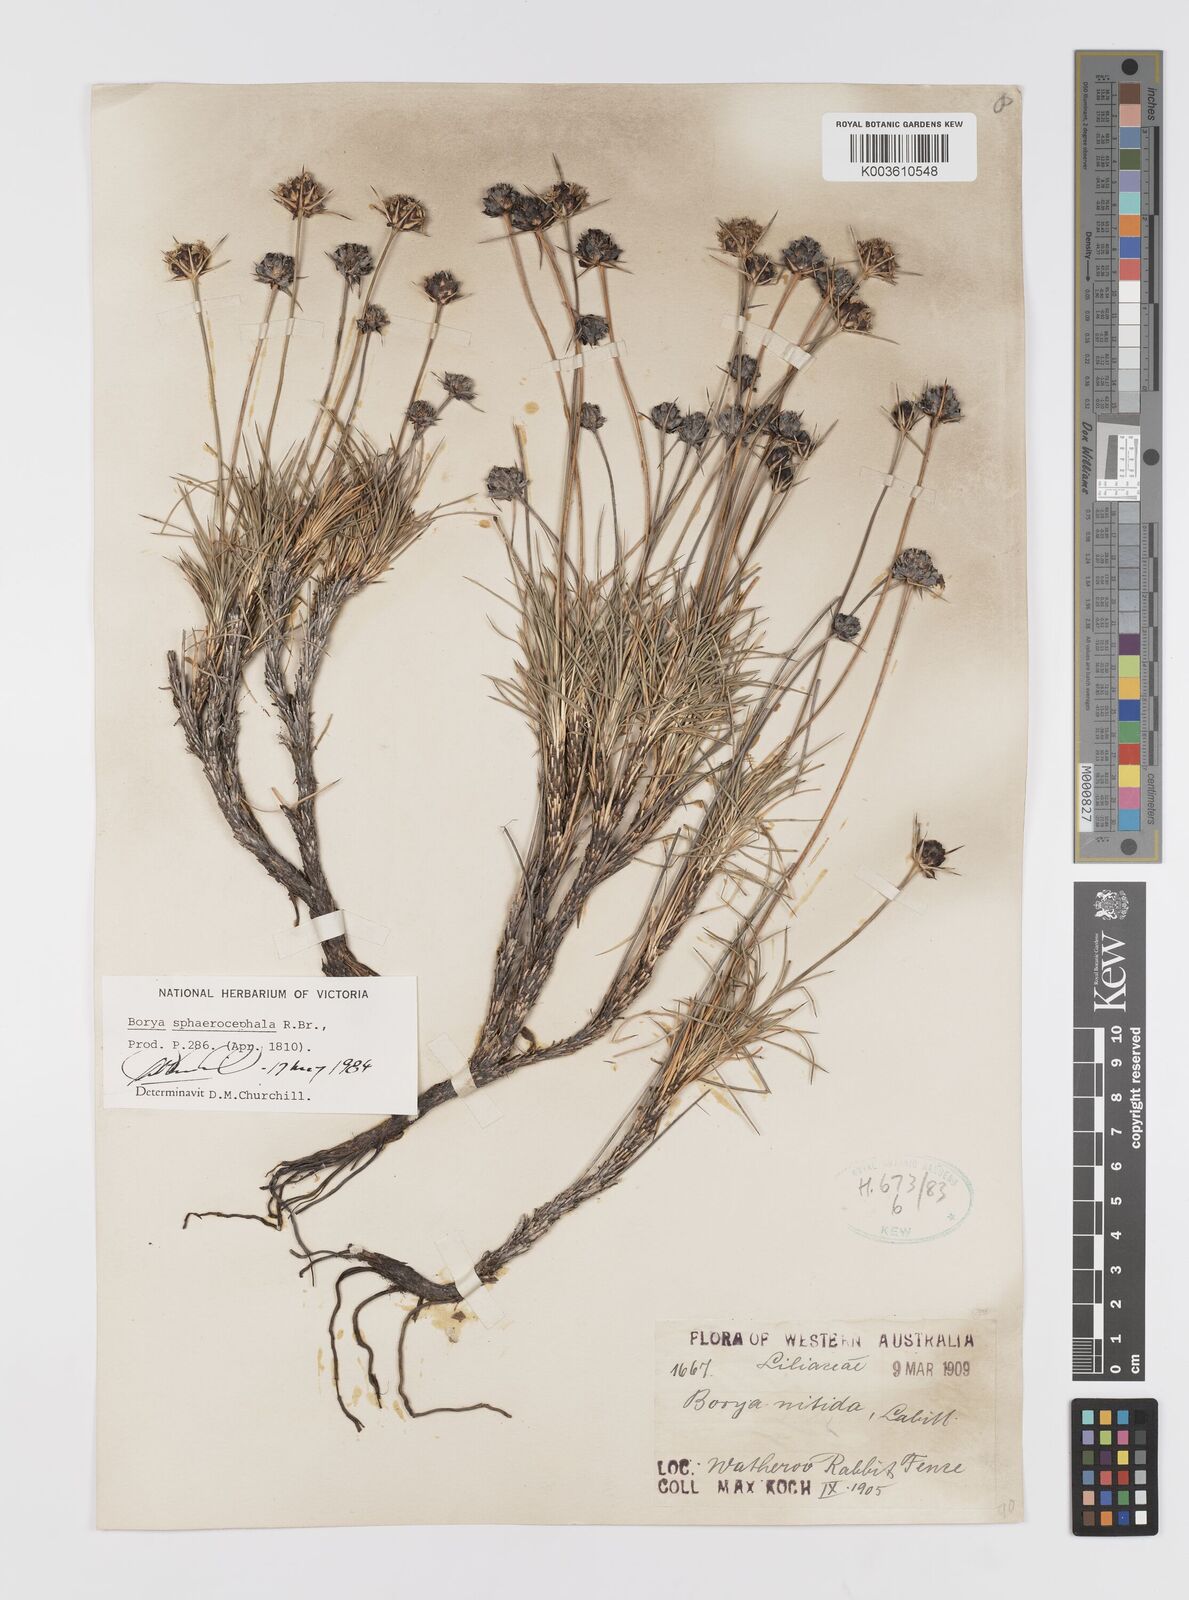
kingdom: Plantae
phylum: Tracheophyta
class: Liliopsida
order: Asparagales
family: Boryaceae
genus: Borya
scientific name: Borya sphaerocephala
